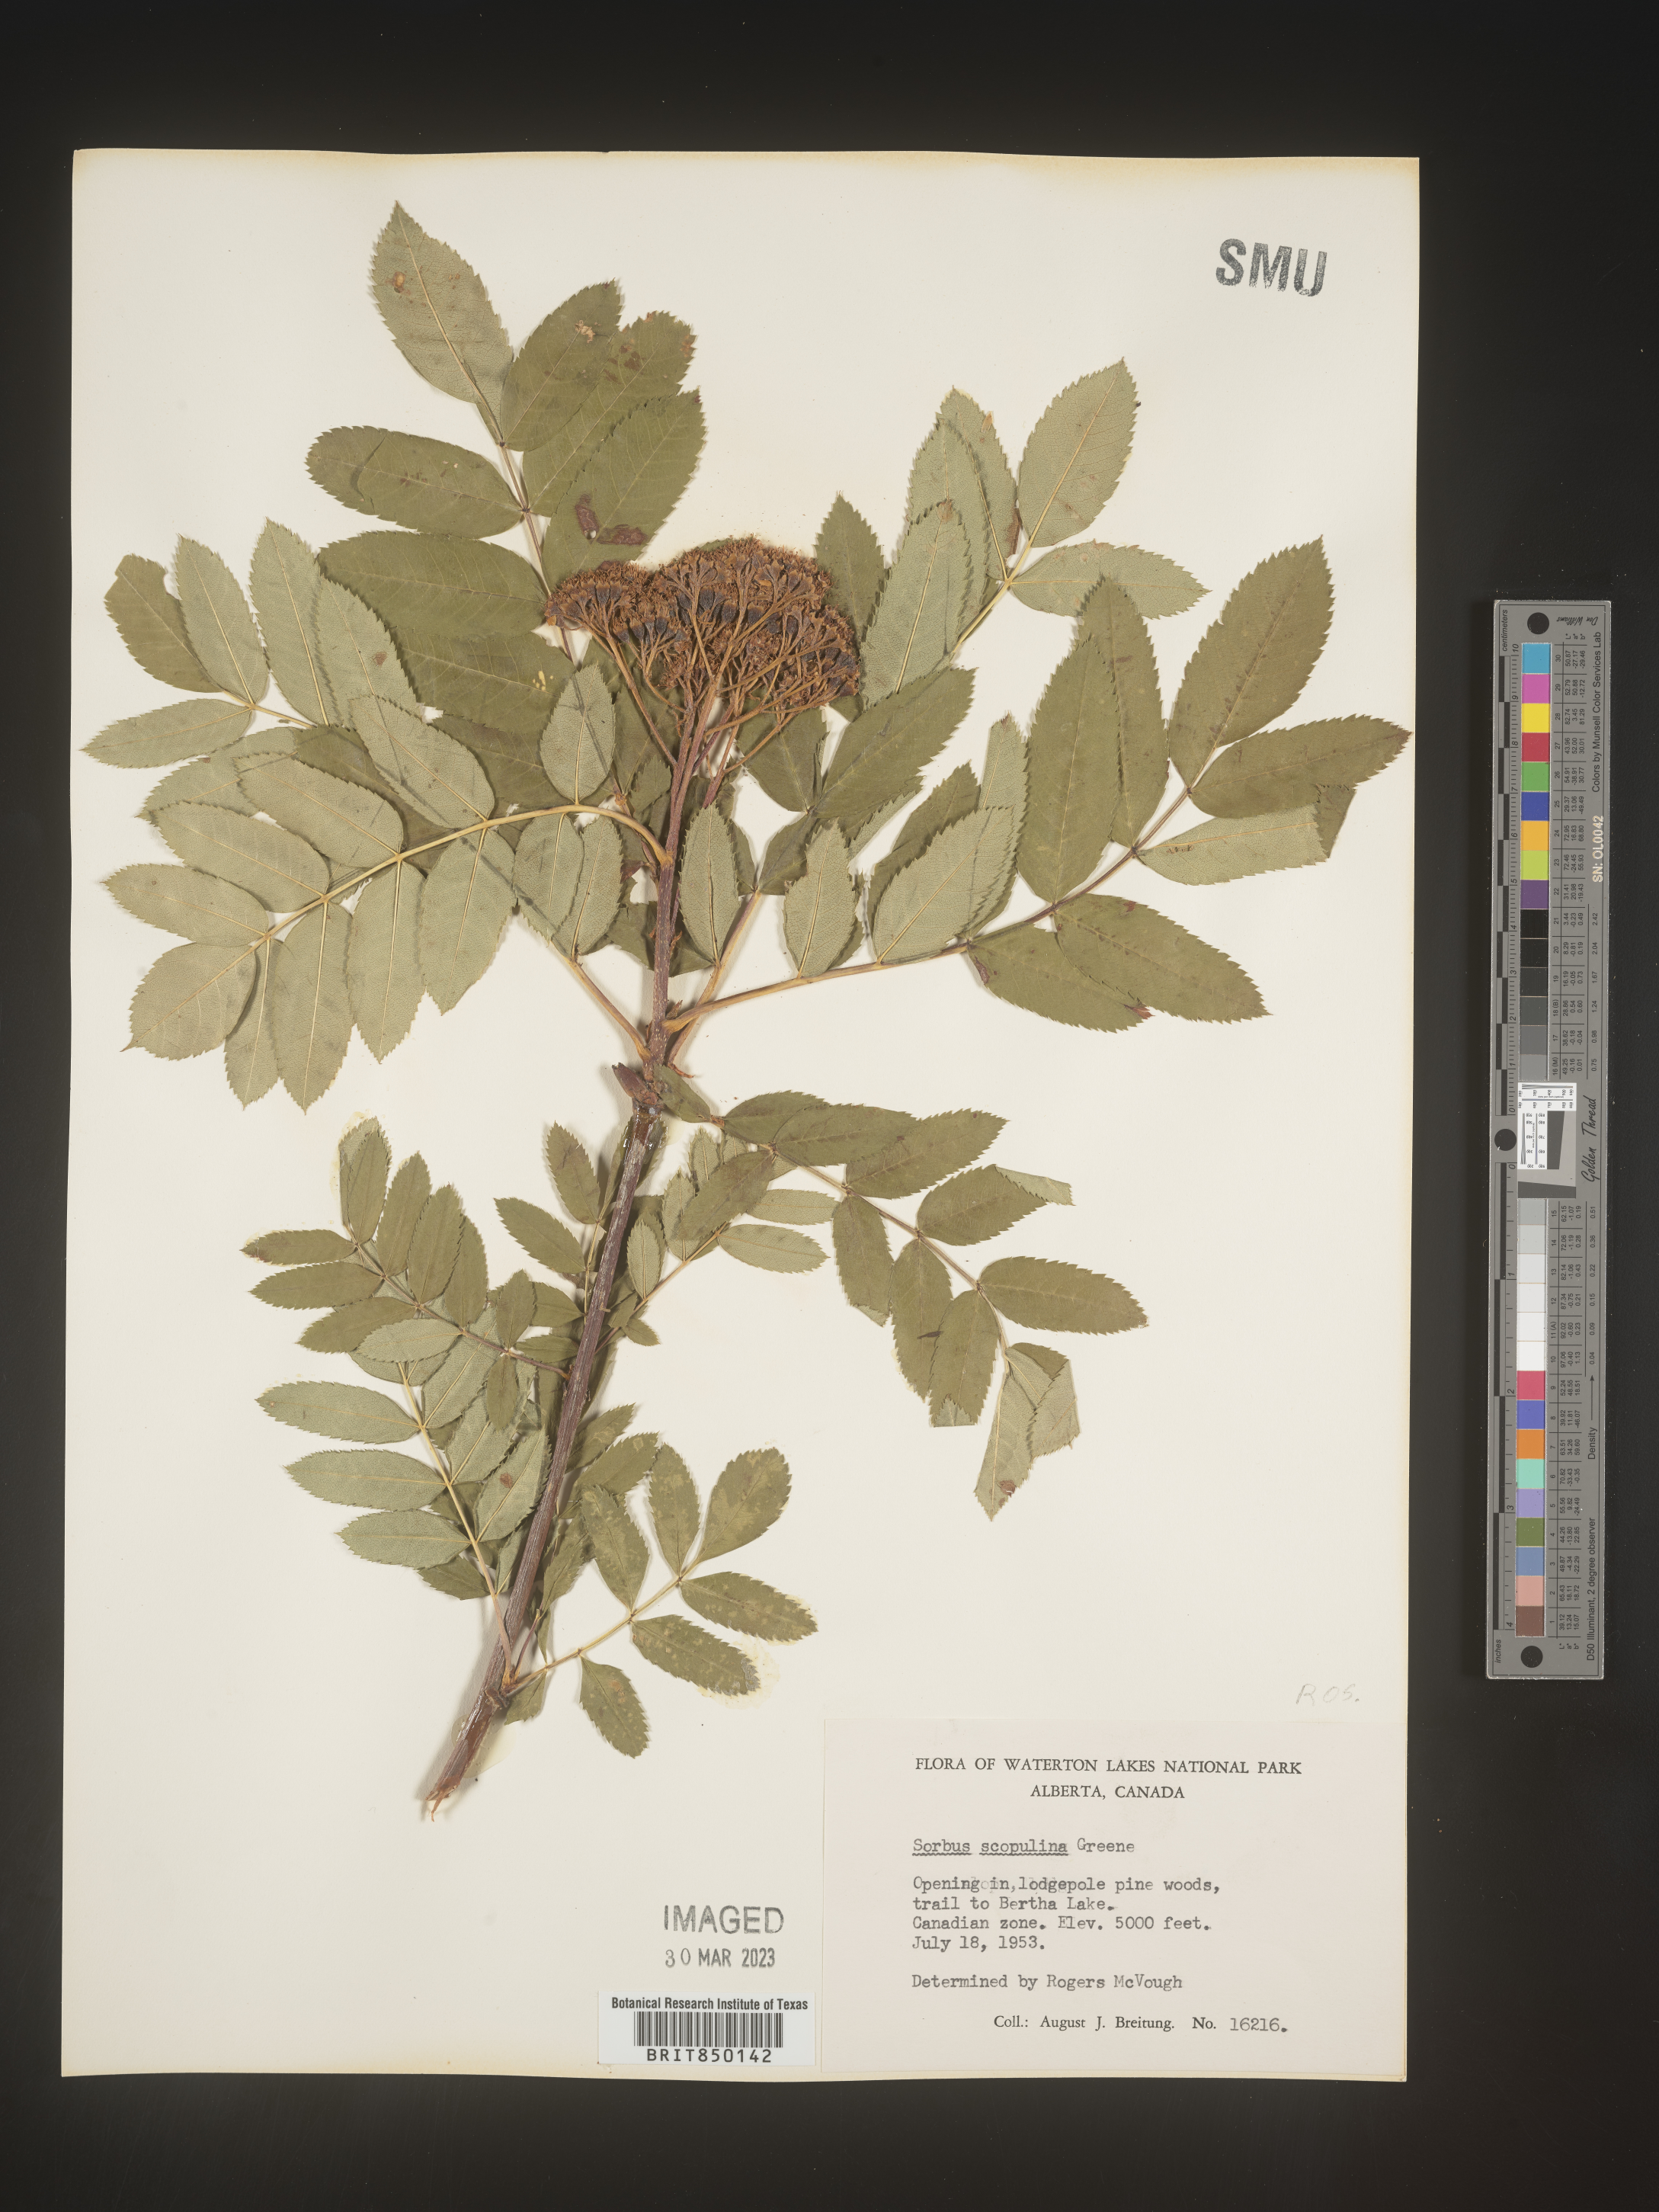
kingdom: Plantae
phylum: Tracheophyta
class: Magnoliopsida
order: Rosales
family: Rosaceae
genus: Sorbus
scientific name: Sorbus scopulina
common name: Greene's mountain-ash
